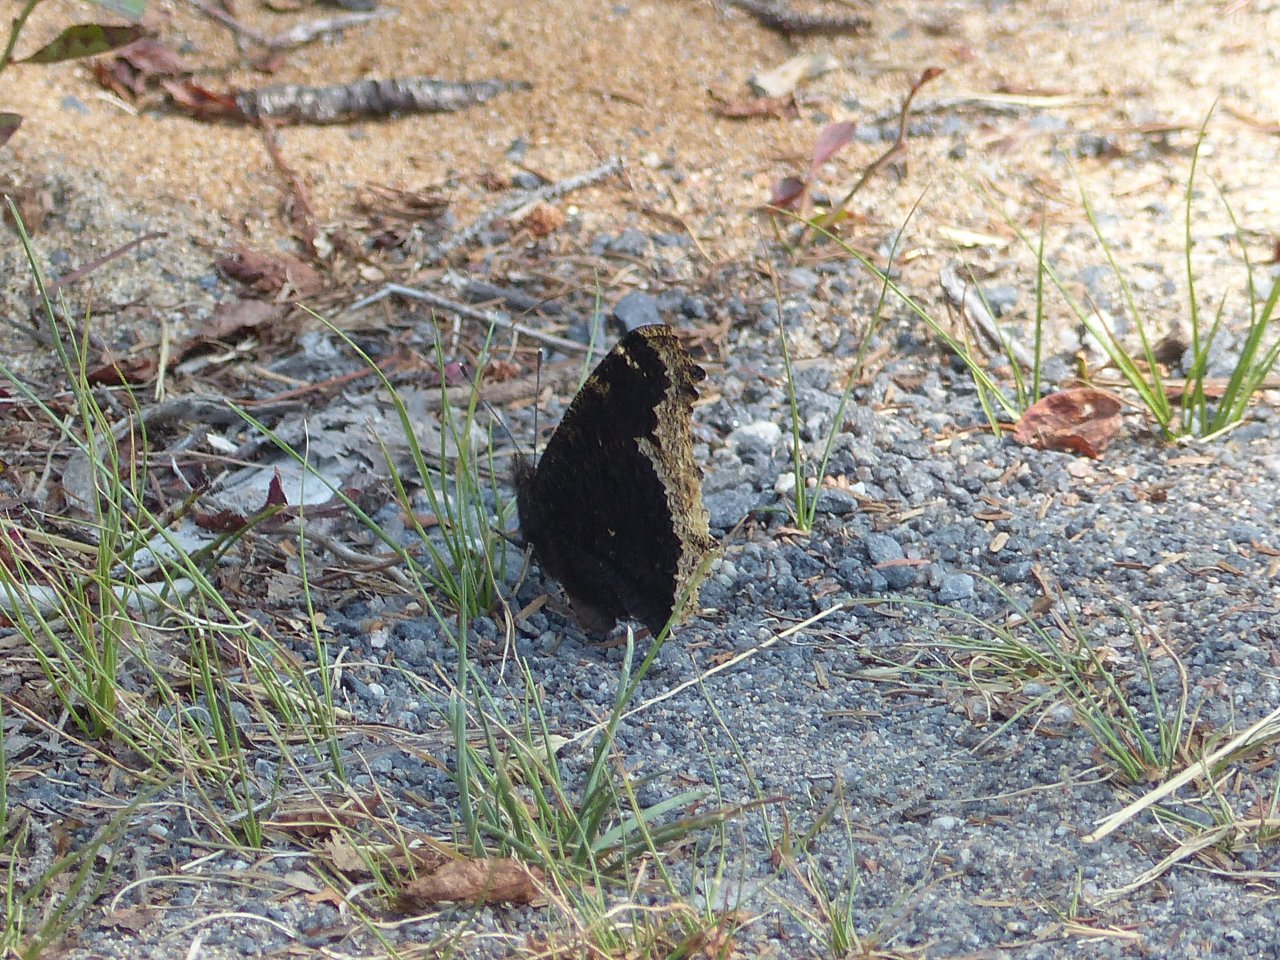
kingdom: Animalia
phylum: Arthropoda
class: Insecta
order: Lepidoptera
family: Nymphalidae
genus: Nymphalis
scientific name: Nymphalis antiopa
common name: Mourning Cloak
